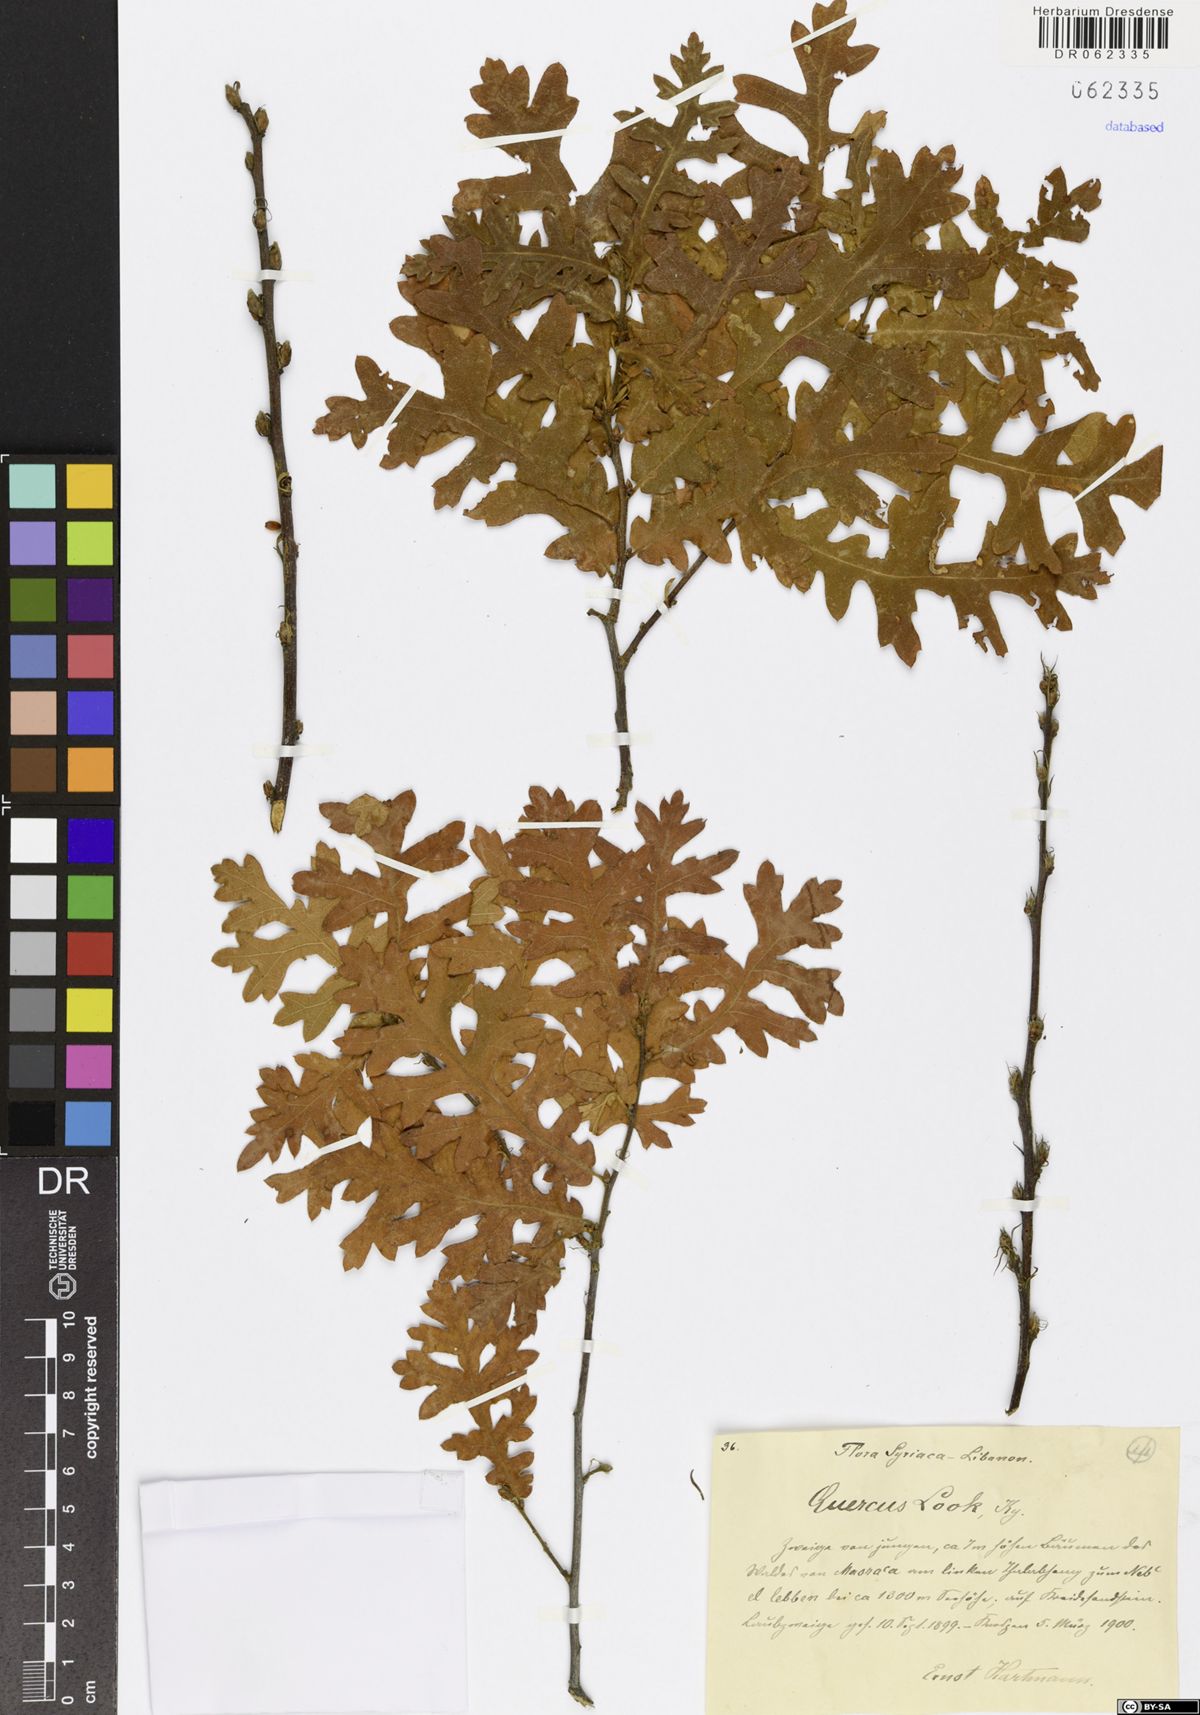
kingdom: Plantae
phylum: Tracheophyta
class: Magnoliopsida
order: Fagales
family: Fagaceae
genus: Quercus
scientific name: Quercus look
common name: Look oak
